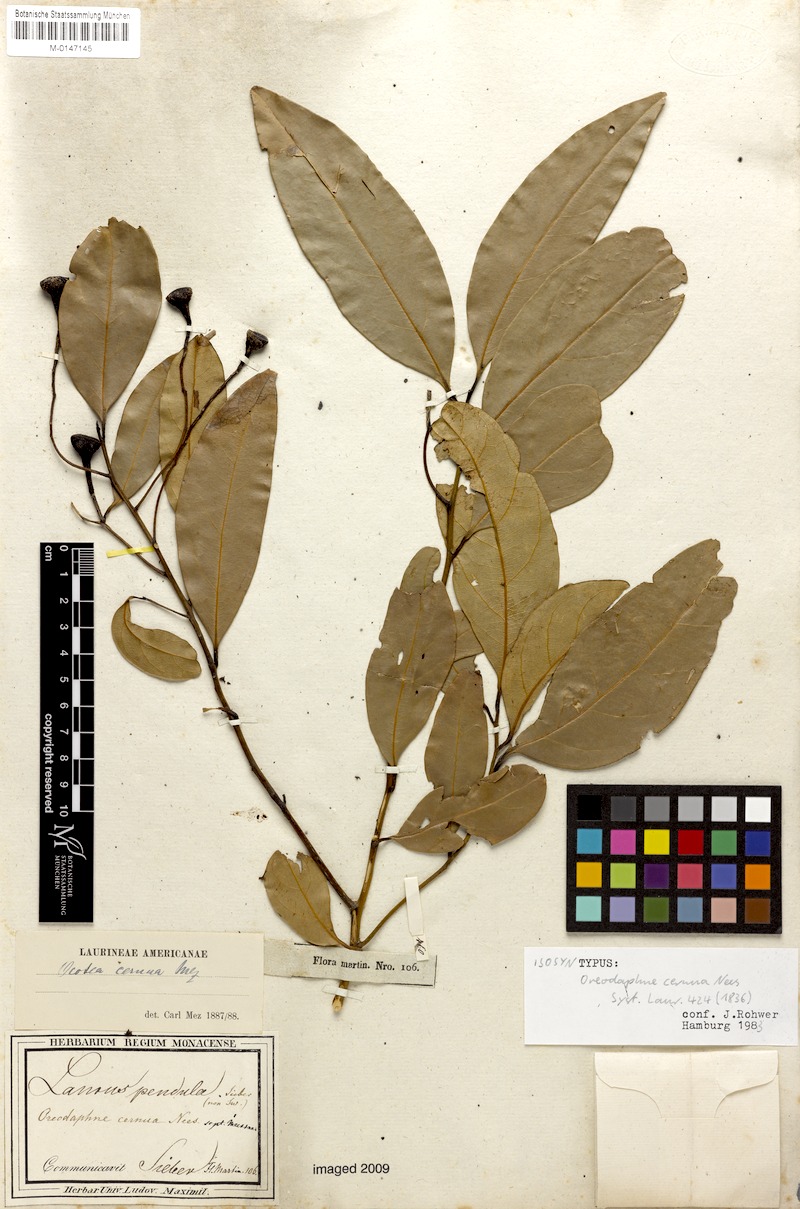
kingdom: Plantae
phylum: Tracheophyta
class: Magnoliopsida
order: Laurales
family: Lauraceae
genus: Ocotea
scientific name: Ocotea leptobotra
